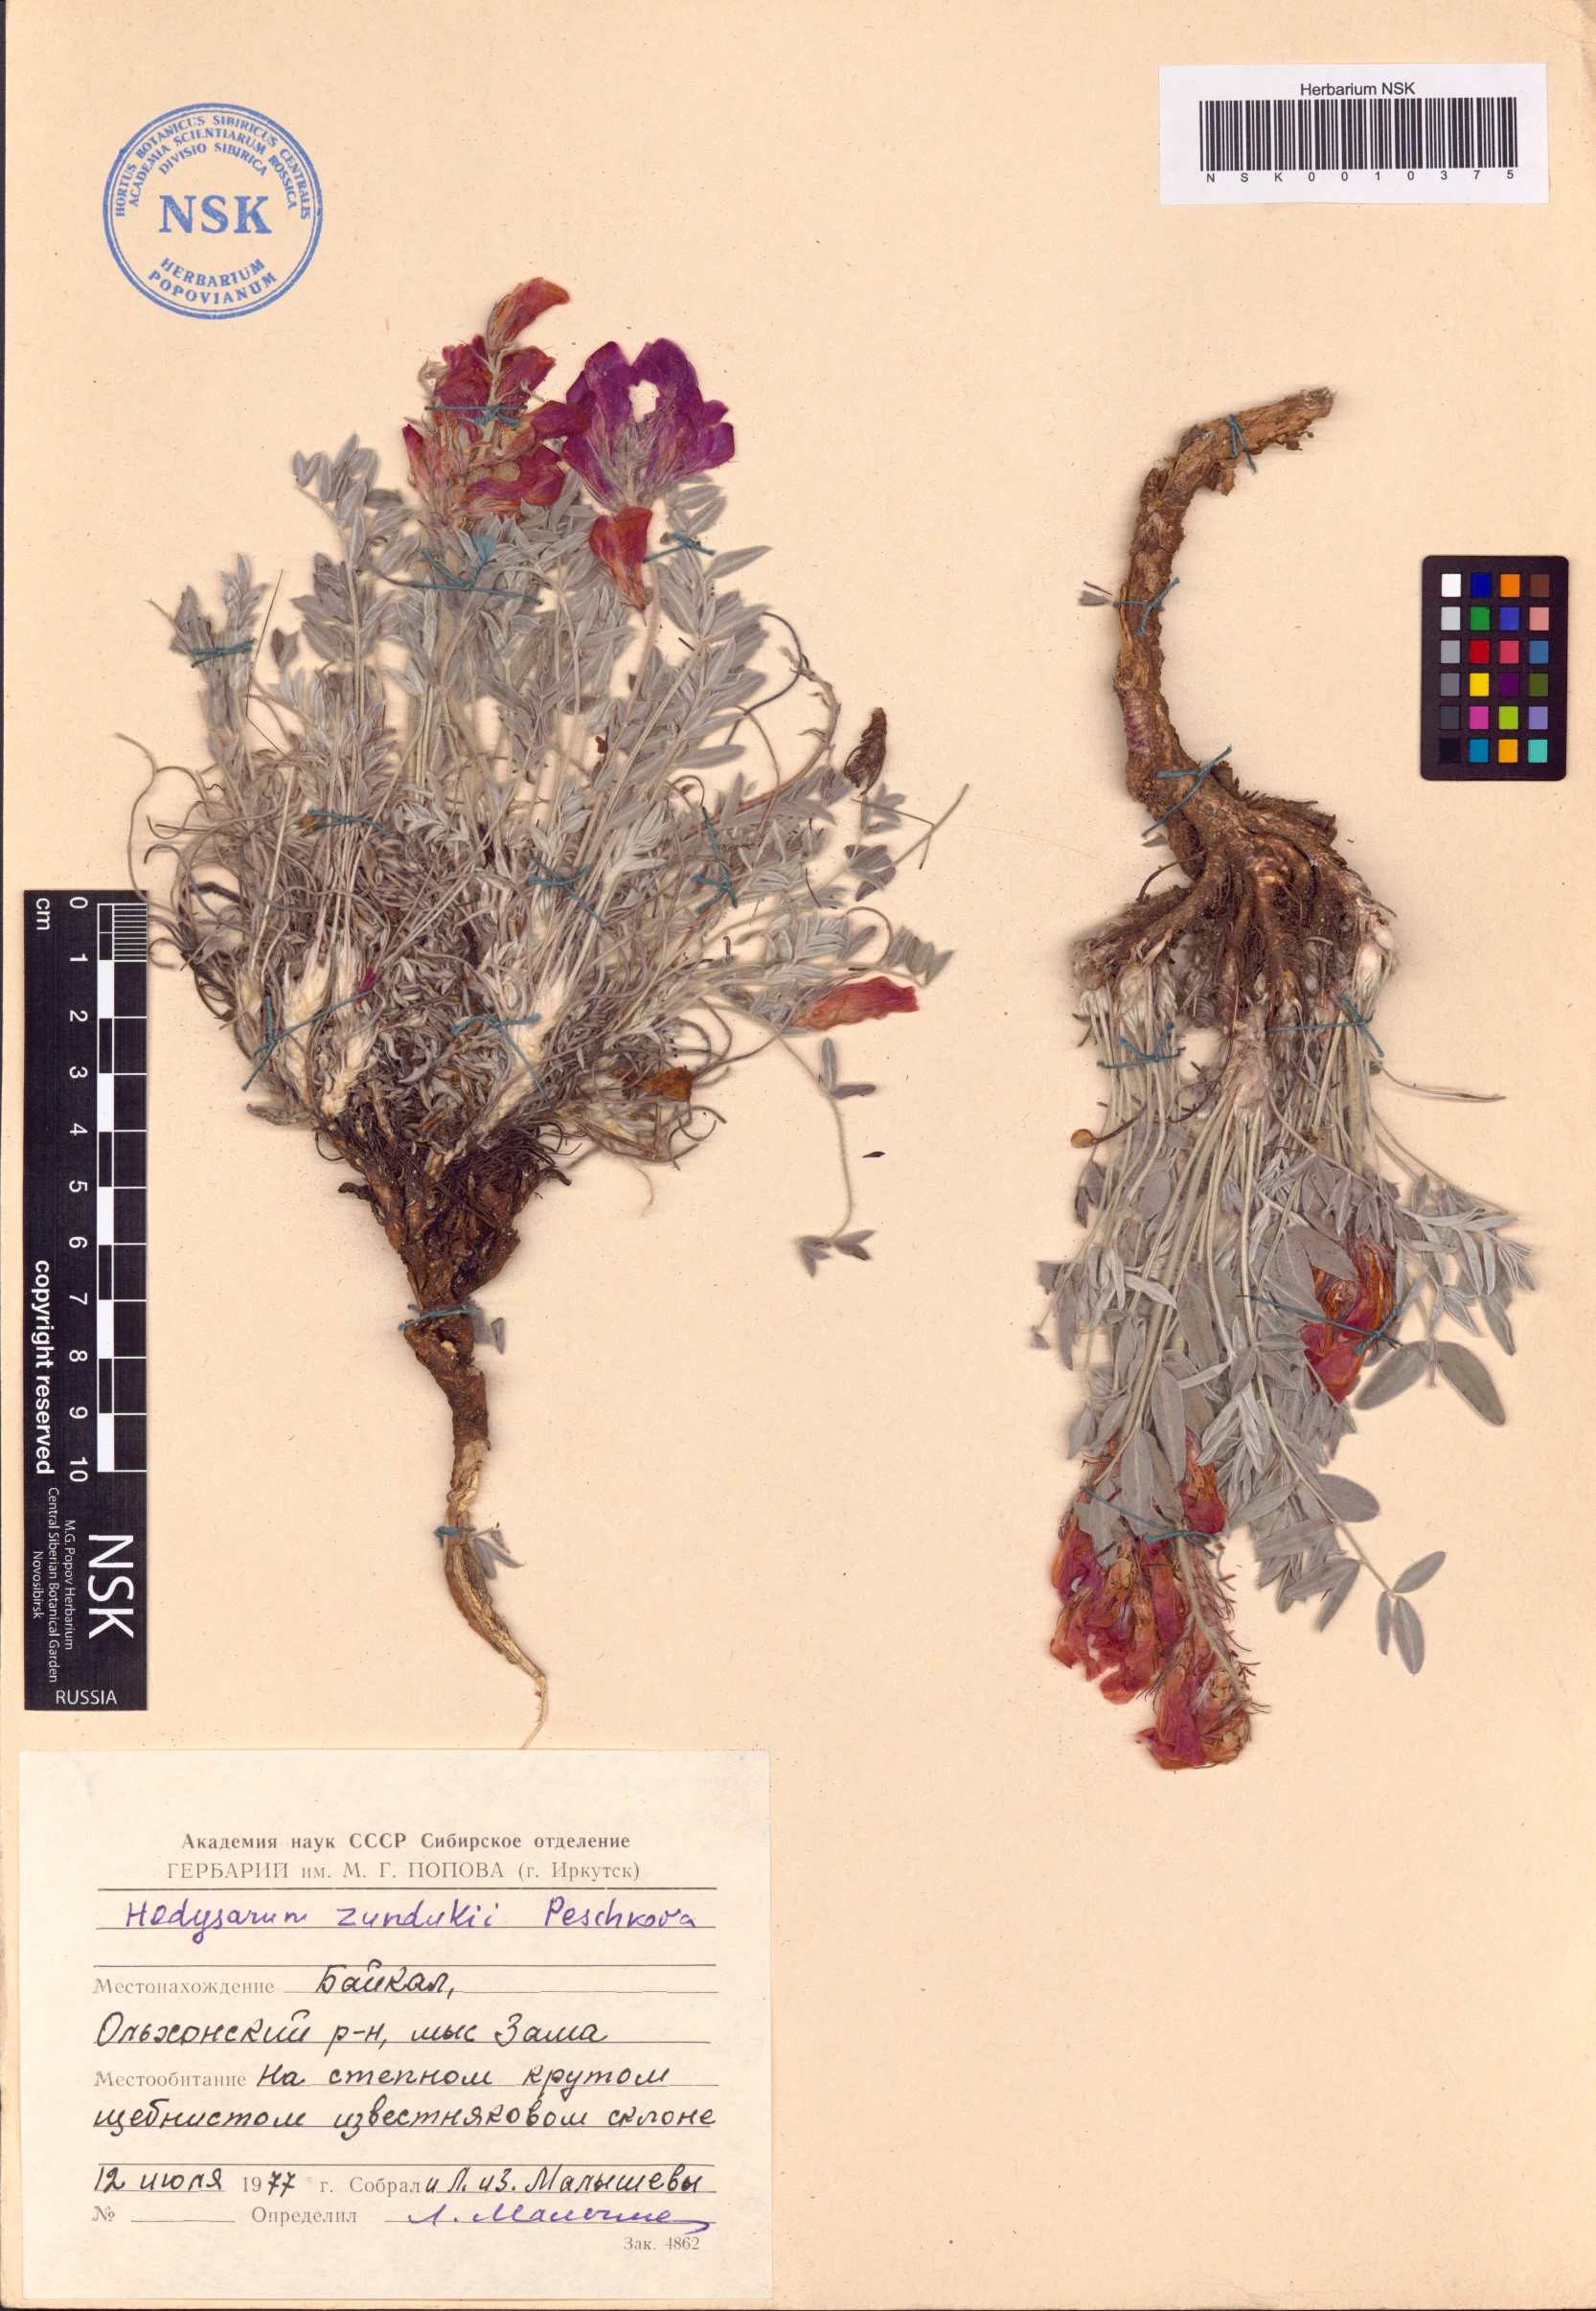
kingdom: Plantae
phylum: Tracheophyta
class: Magnoliopsida
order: Fabales
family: Fabaceae
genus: Hedysarum
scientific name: Hedysarum zundukii
